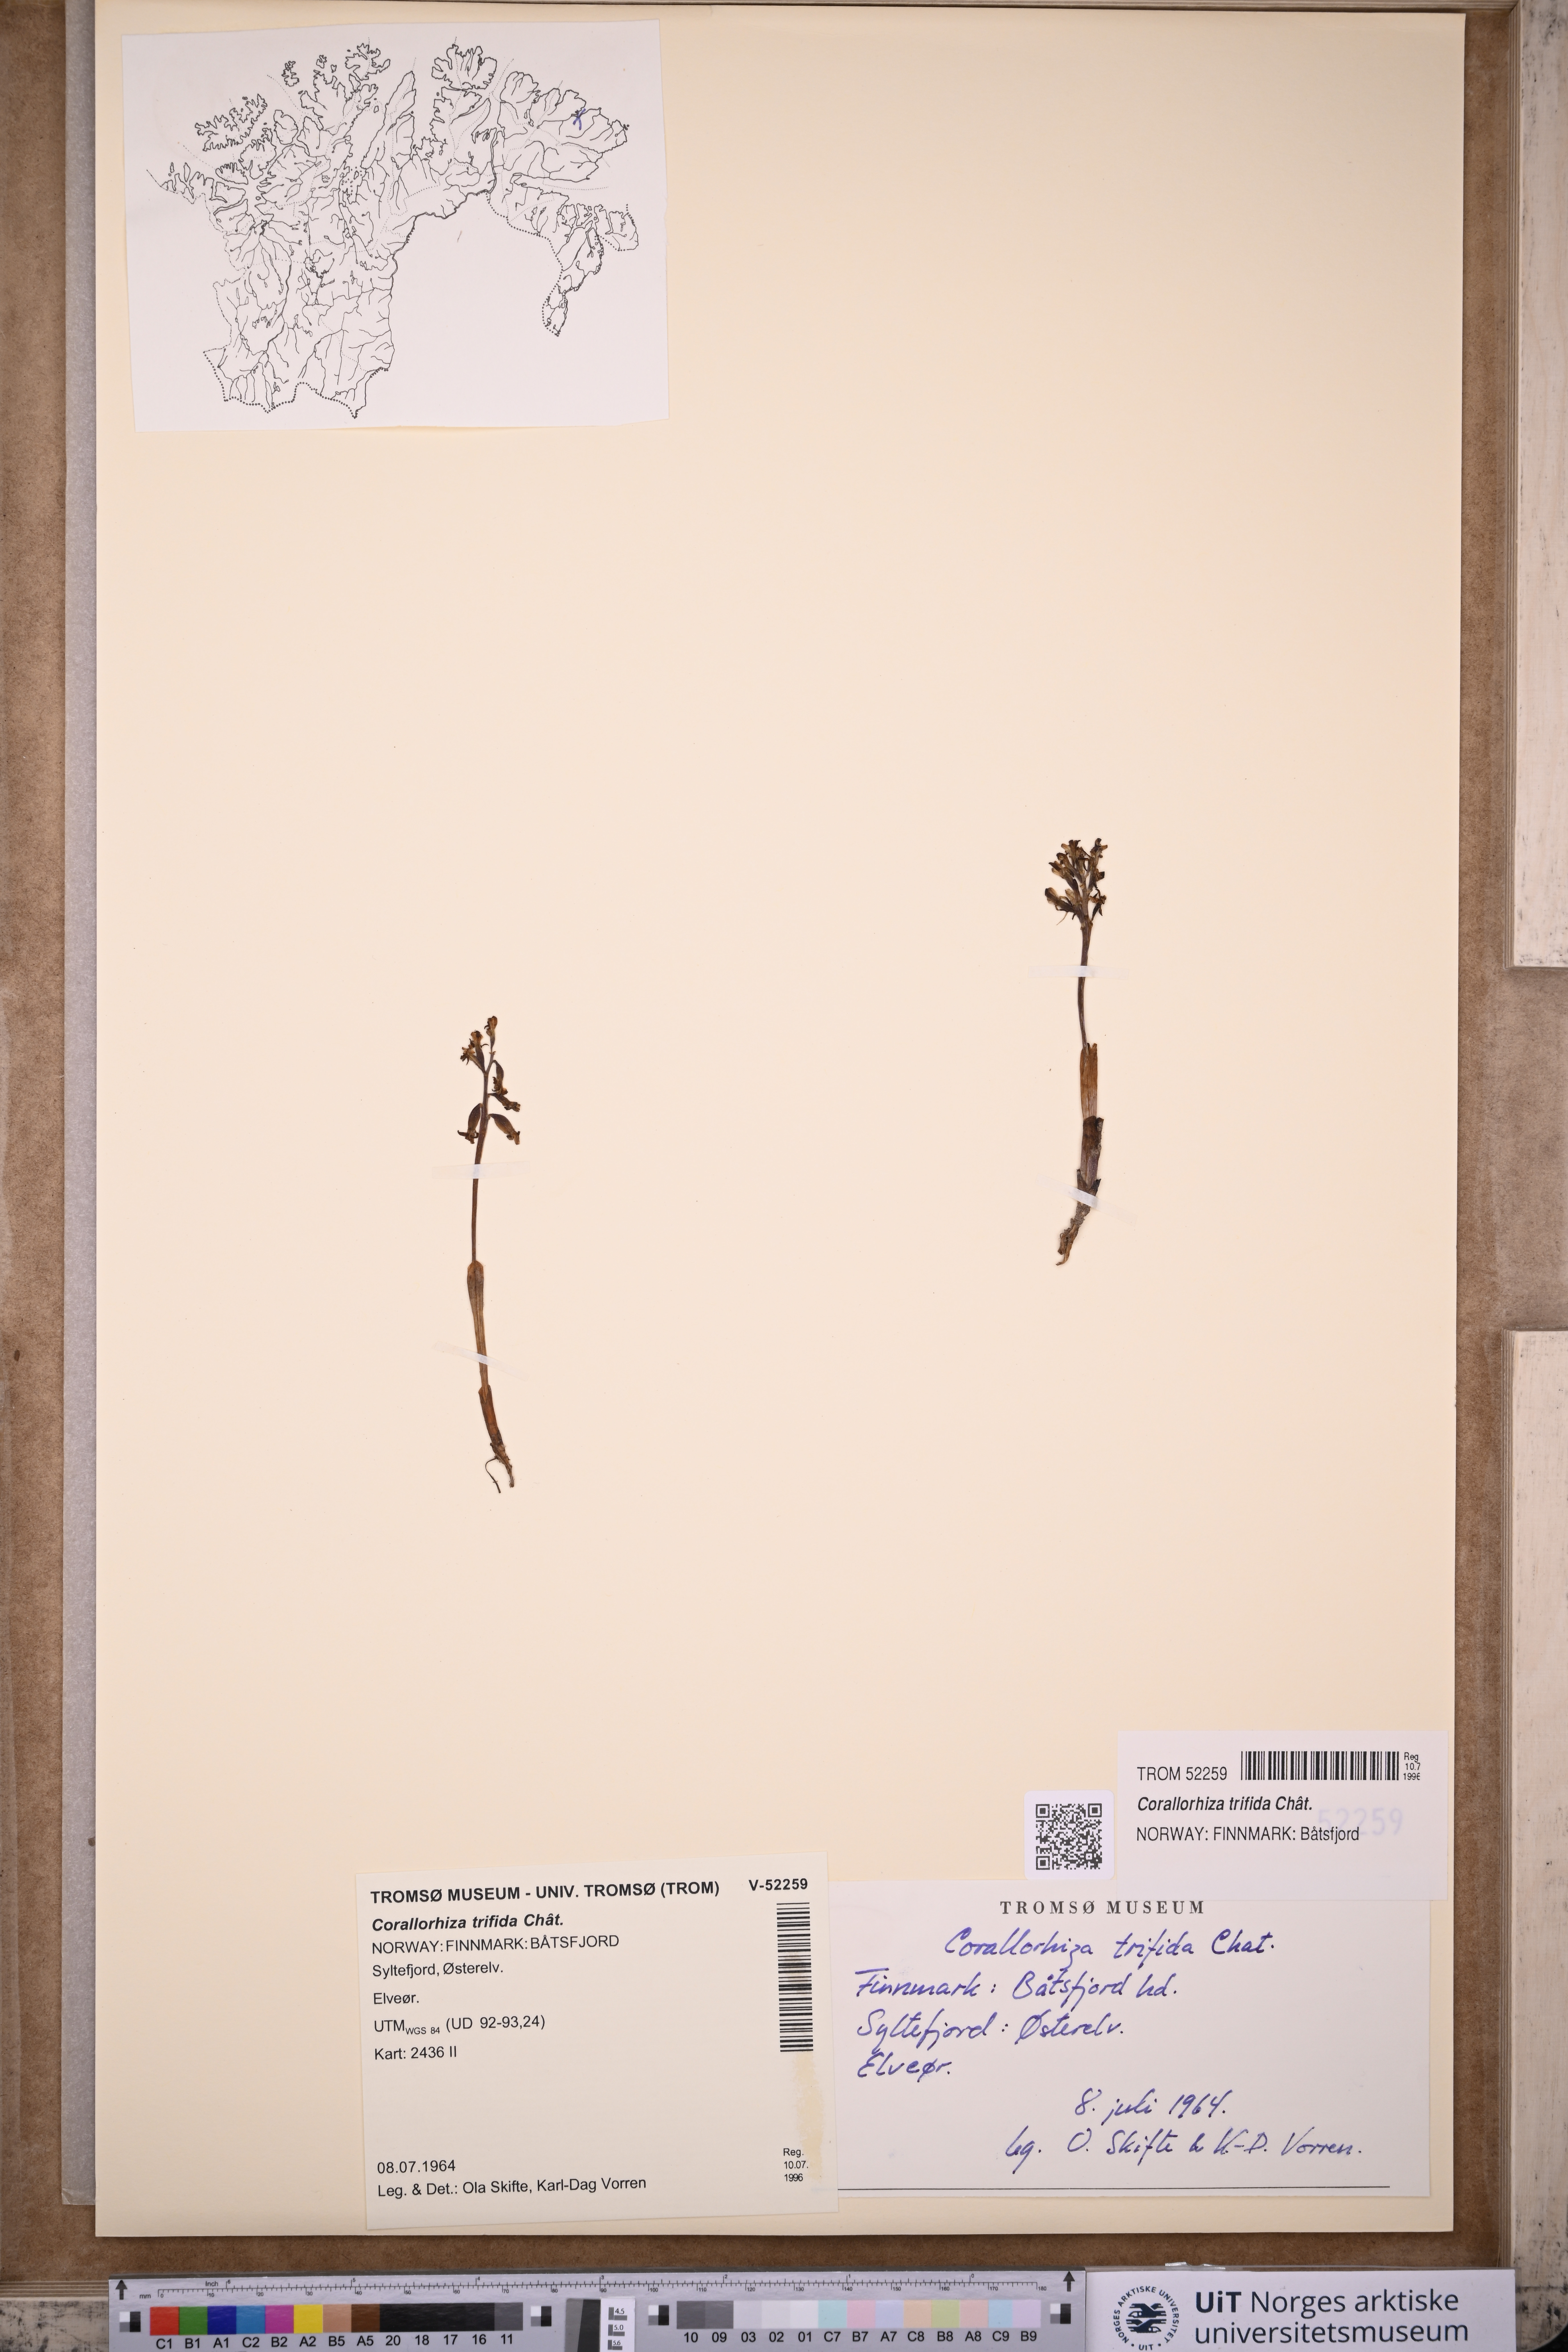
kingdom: Plantae
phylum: Tracheophyta
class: Liliopsida
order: Asparagales
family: Orchidaceae
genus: Corallorhiza
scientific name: Corallorhiza trifida
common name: Yellow coralroot
